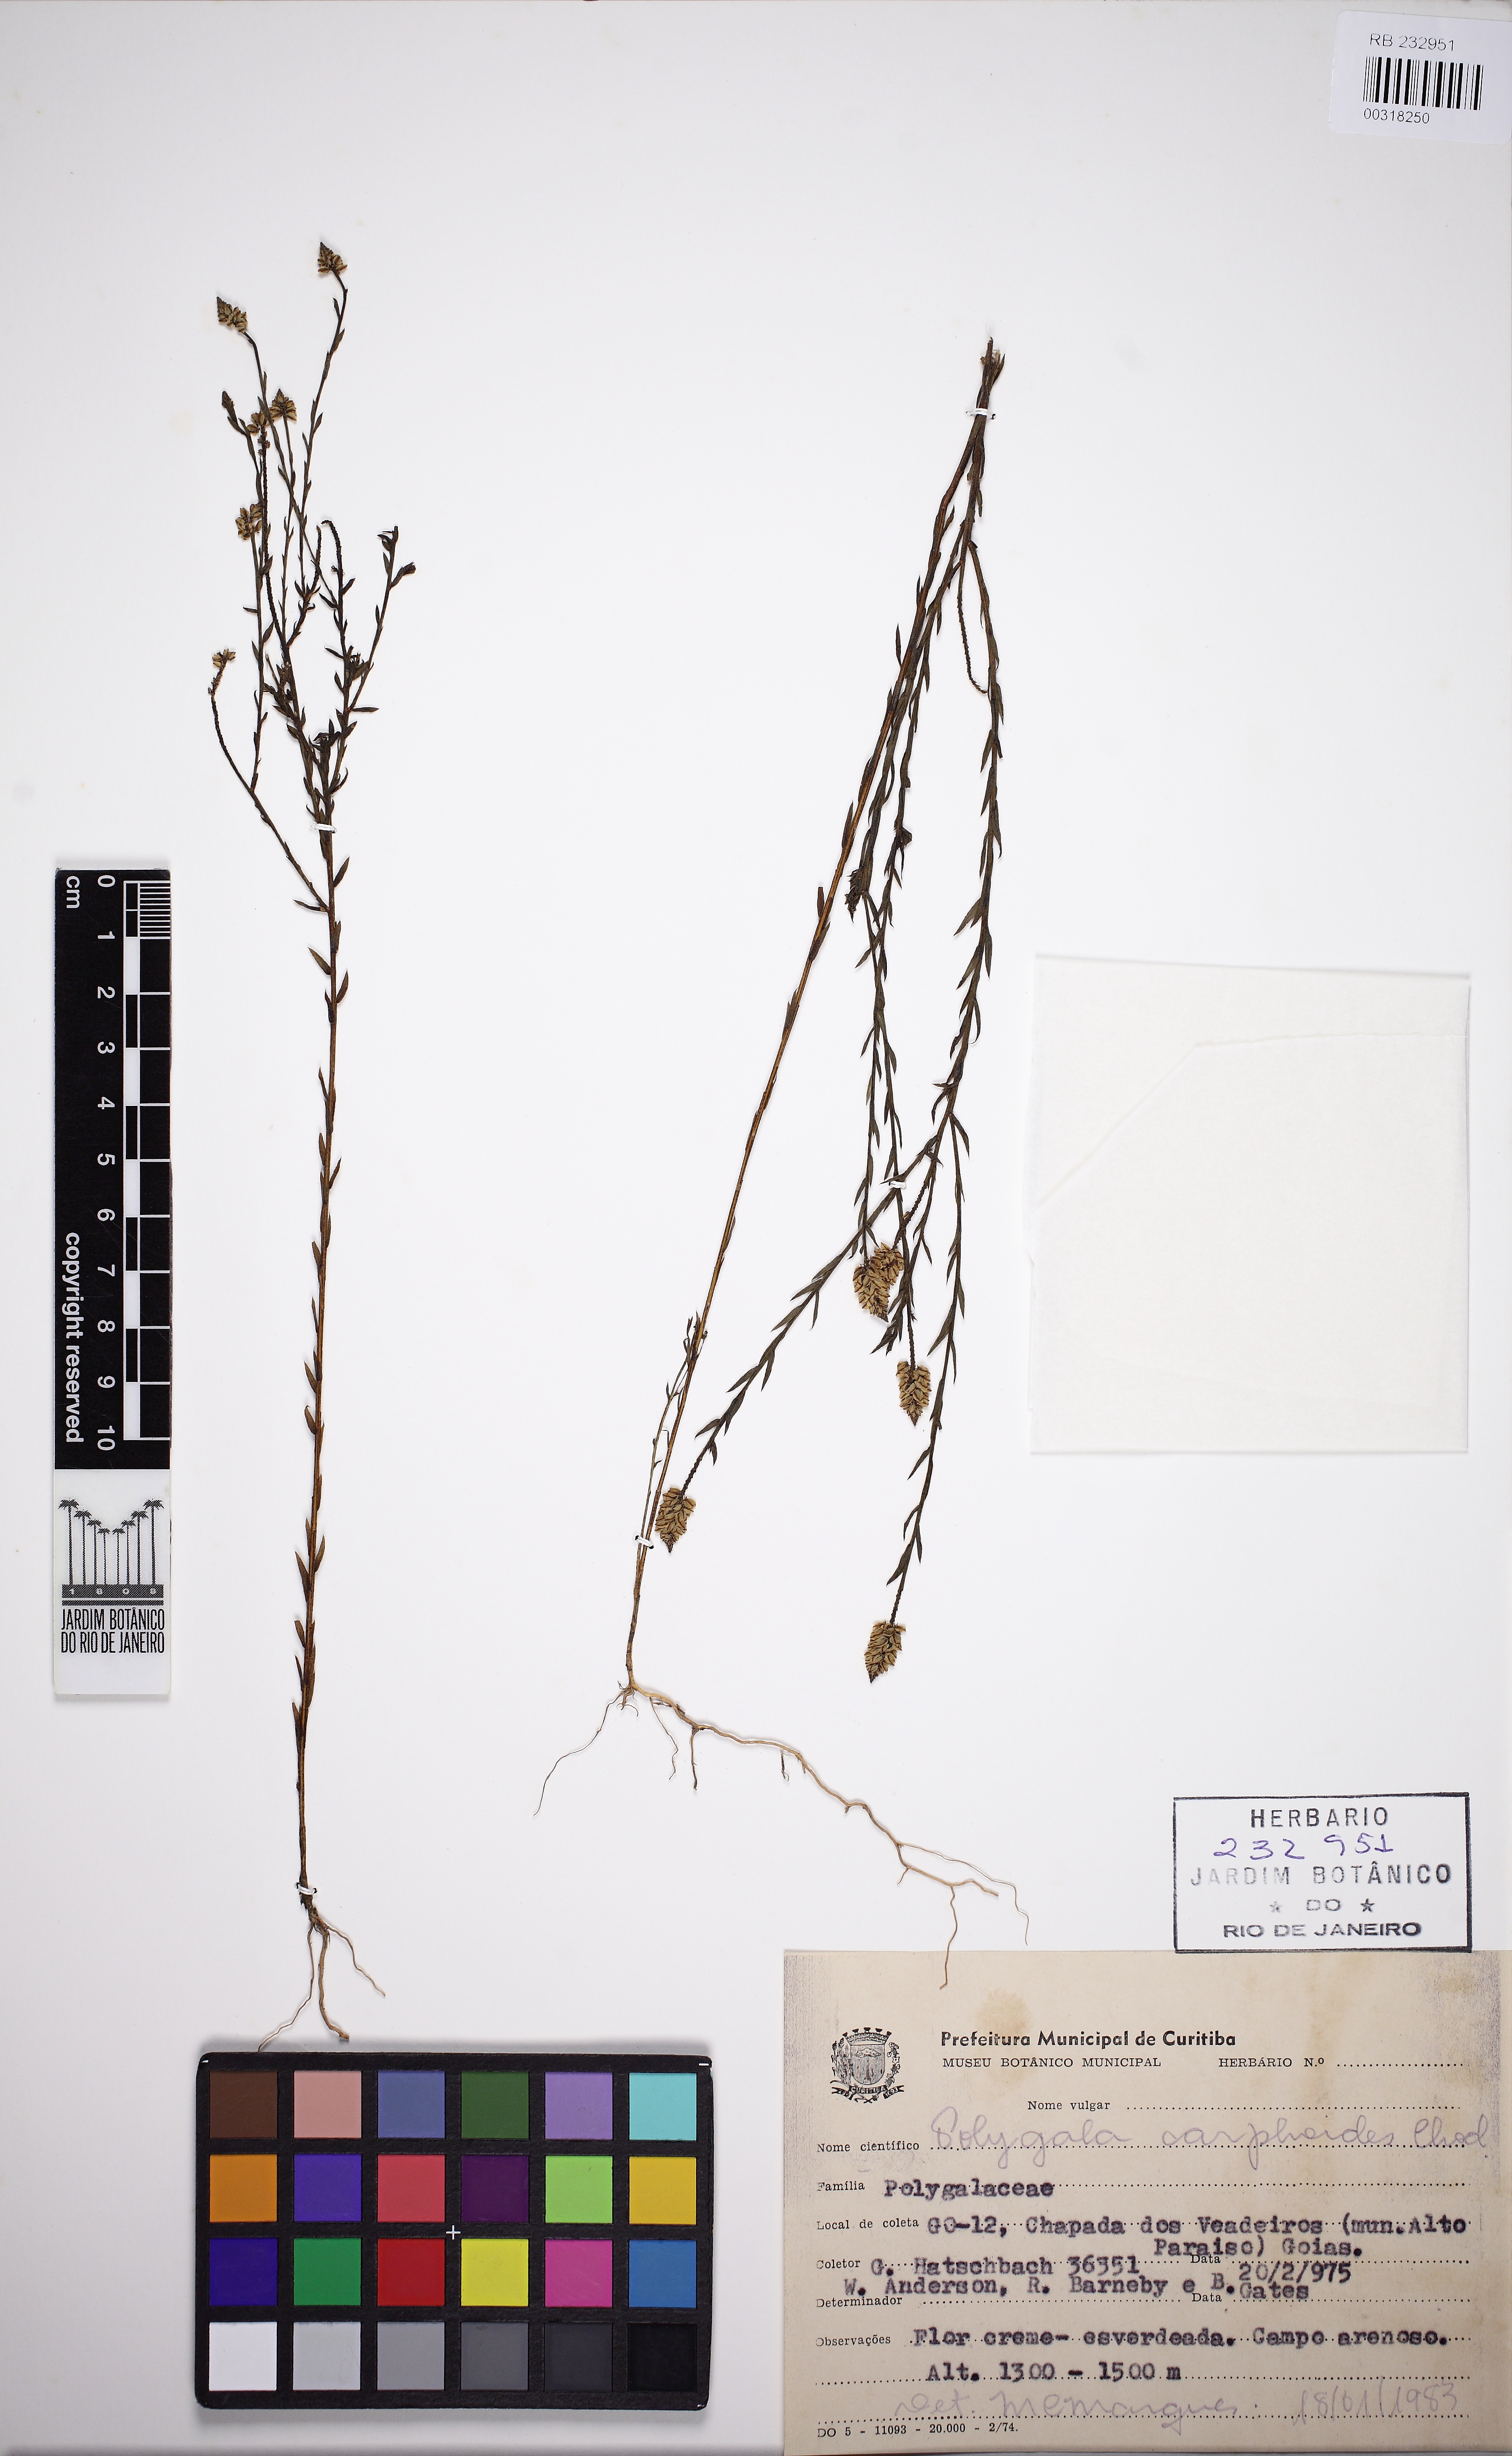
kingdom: Plantae
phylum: Tracheophyta
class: Magnoliopsida
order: Fabales
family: Polygalaceae
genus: Polygala
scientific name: Polygala carphoides
